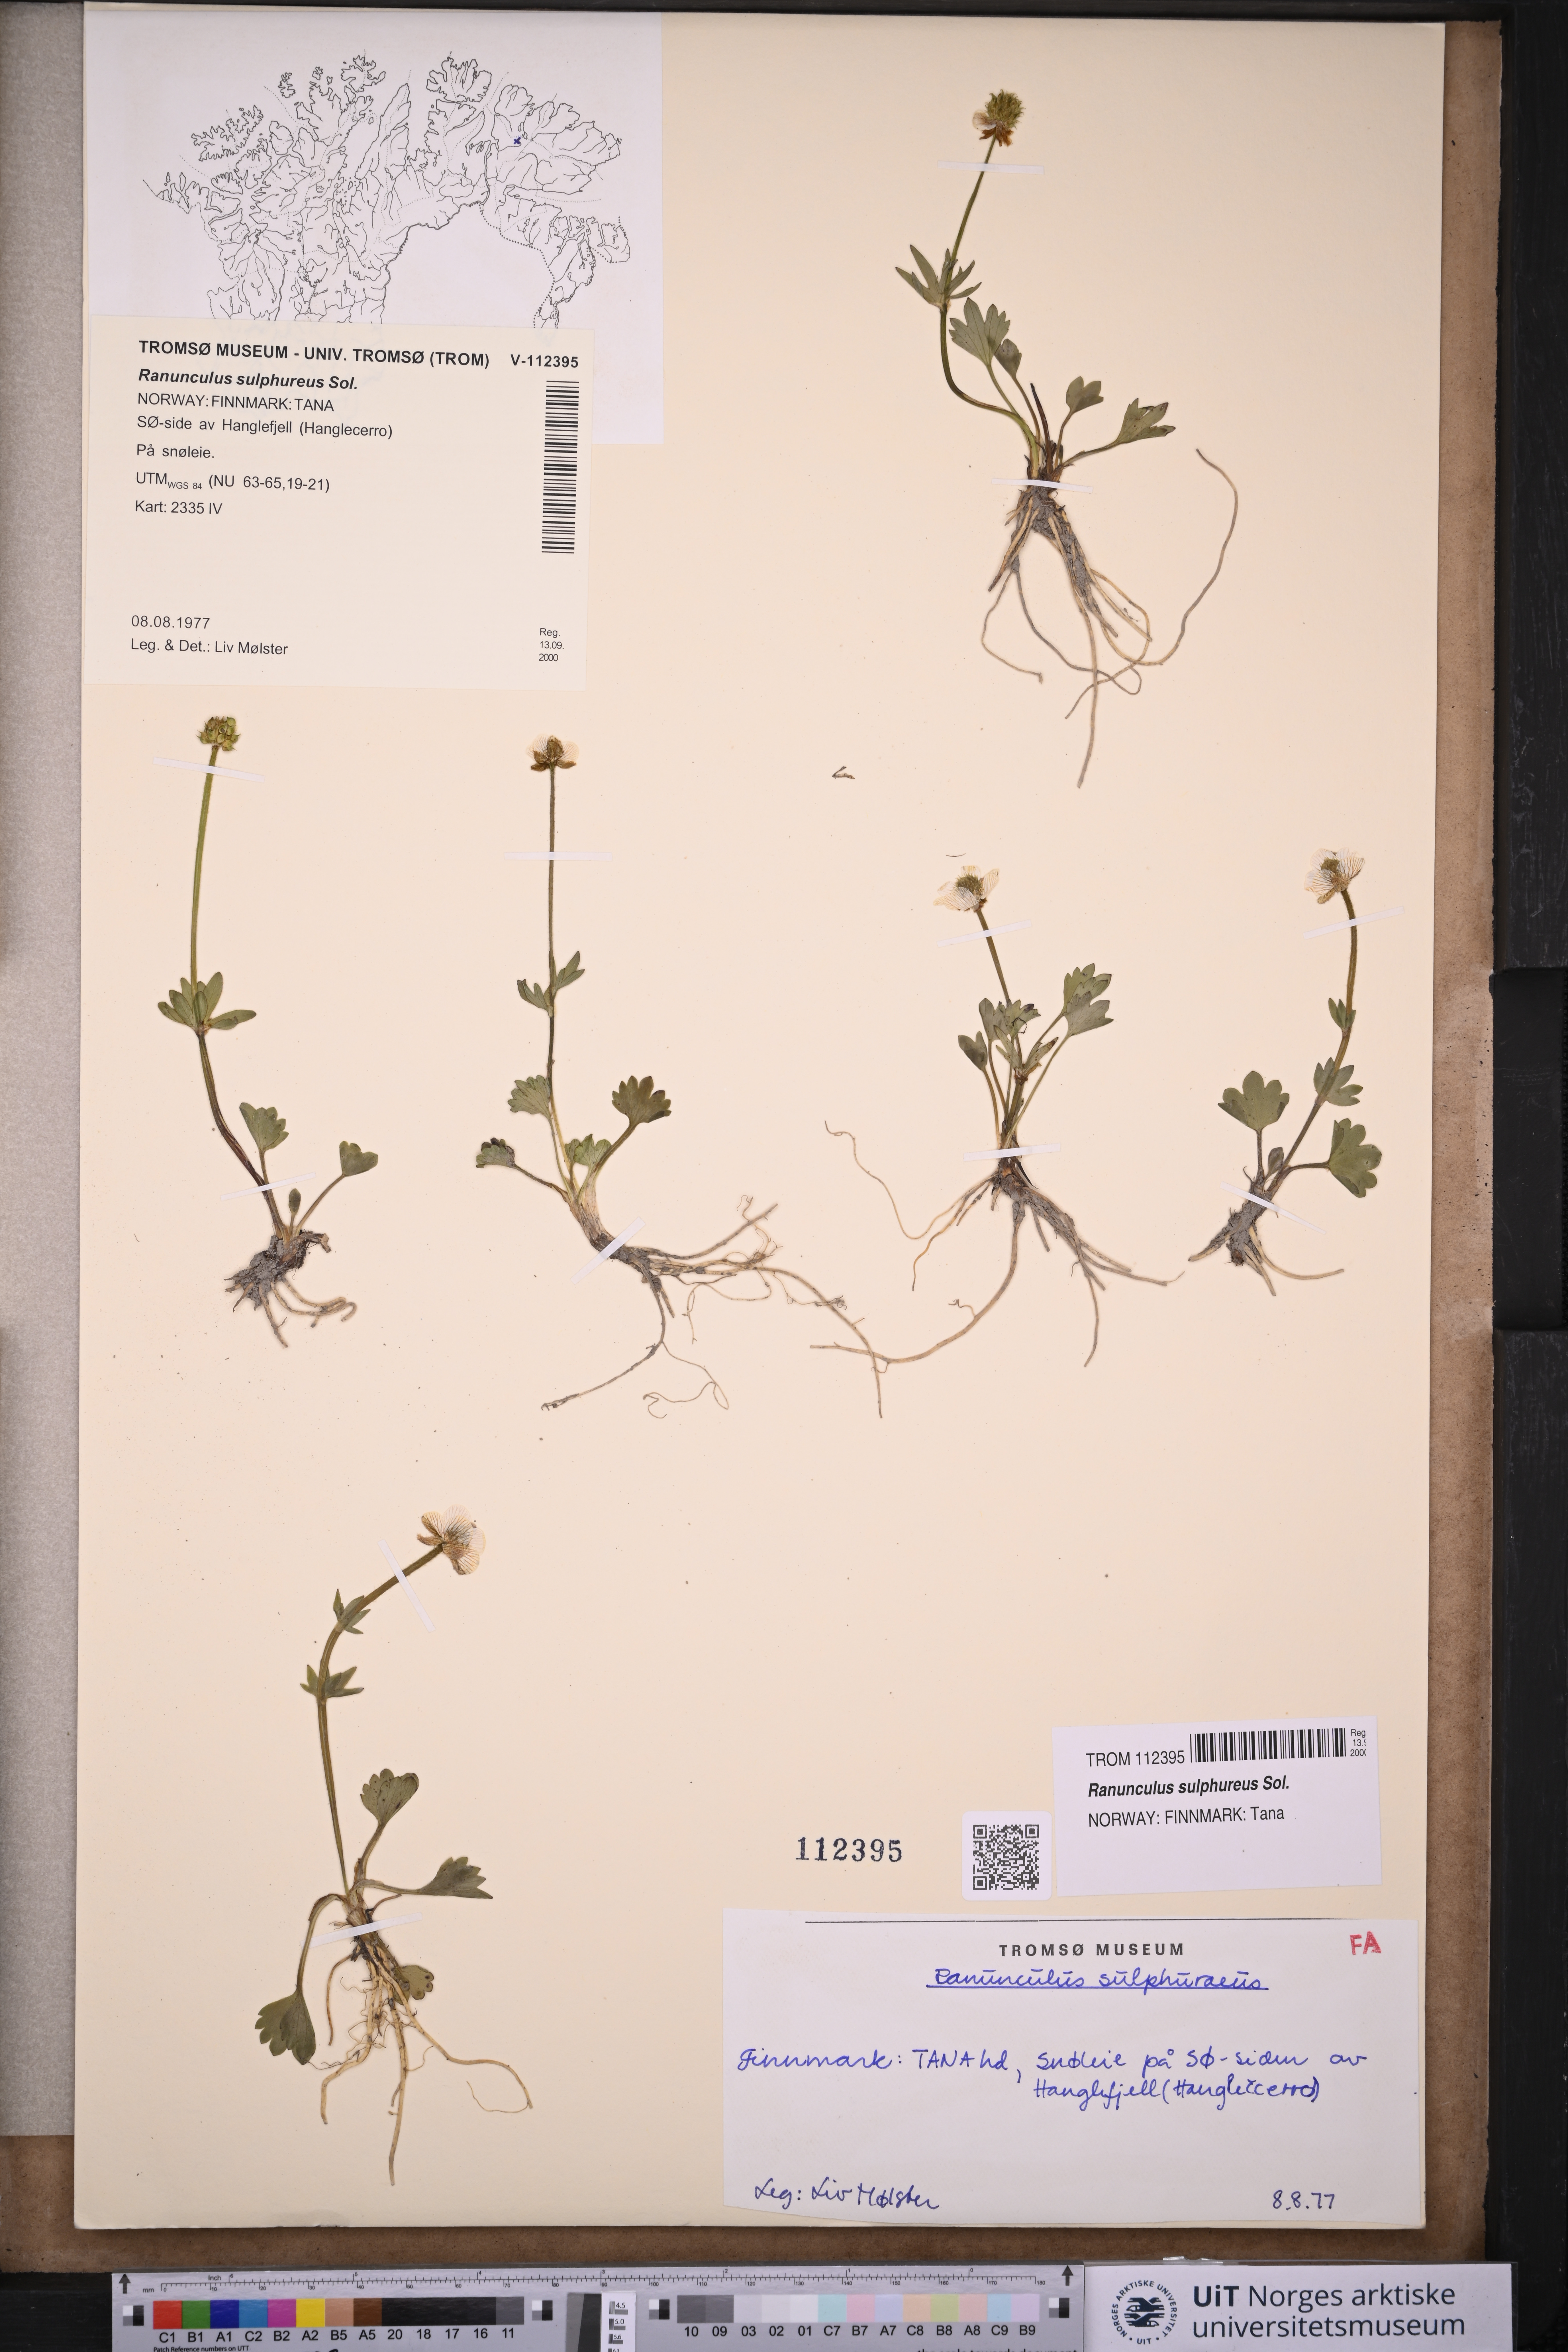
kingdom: Plantae
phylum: Tracheophyta
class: Magnoliopsida
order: Ranunculales
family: Ranunculaceae
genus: Ranunculus
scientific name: Ranunculus sulphureus
